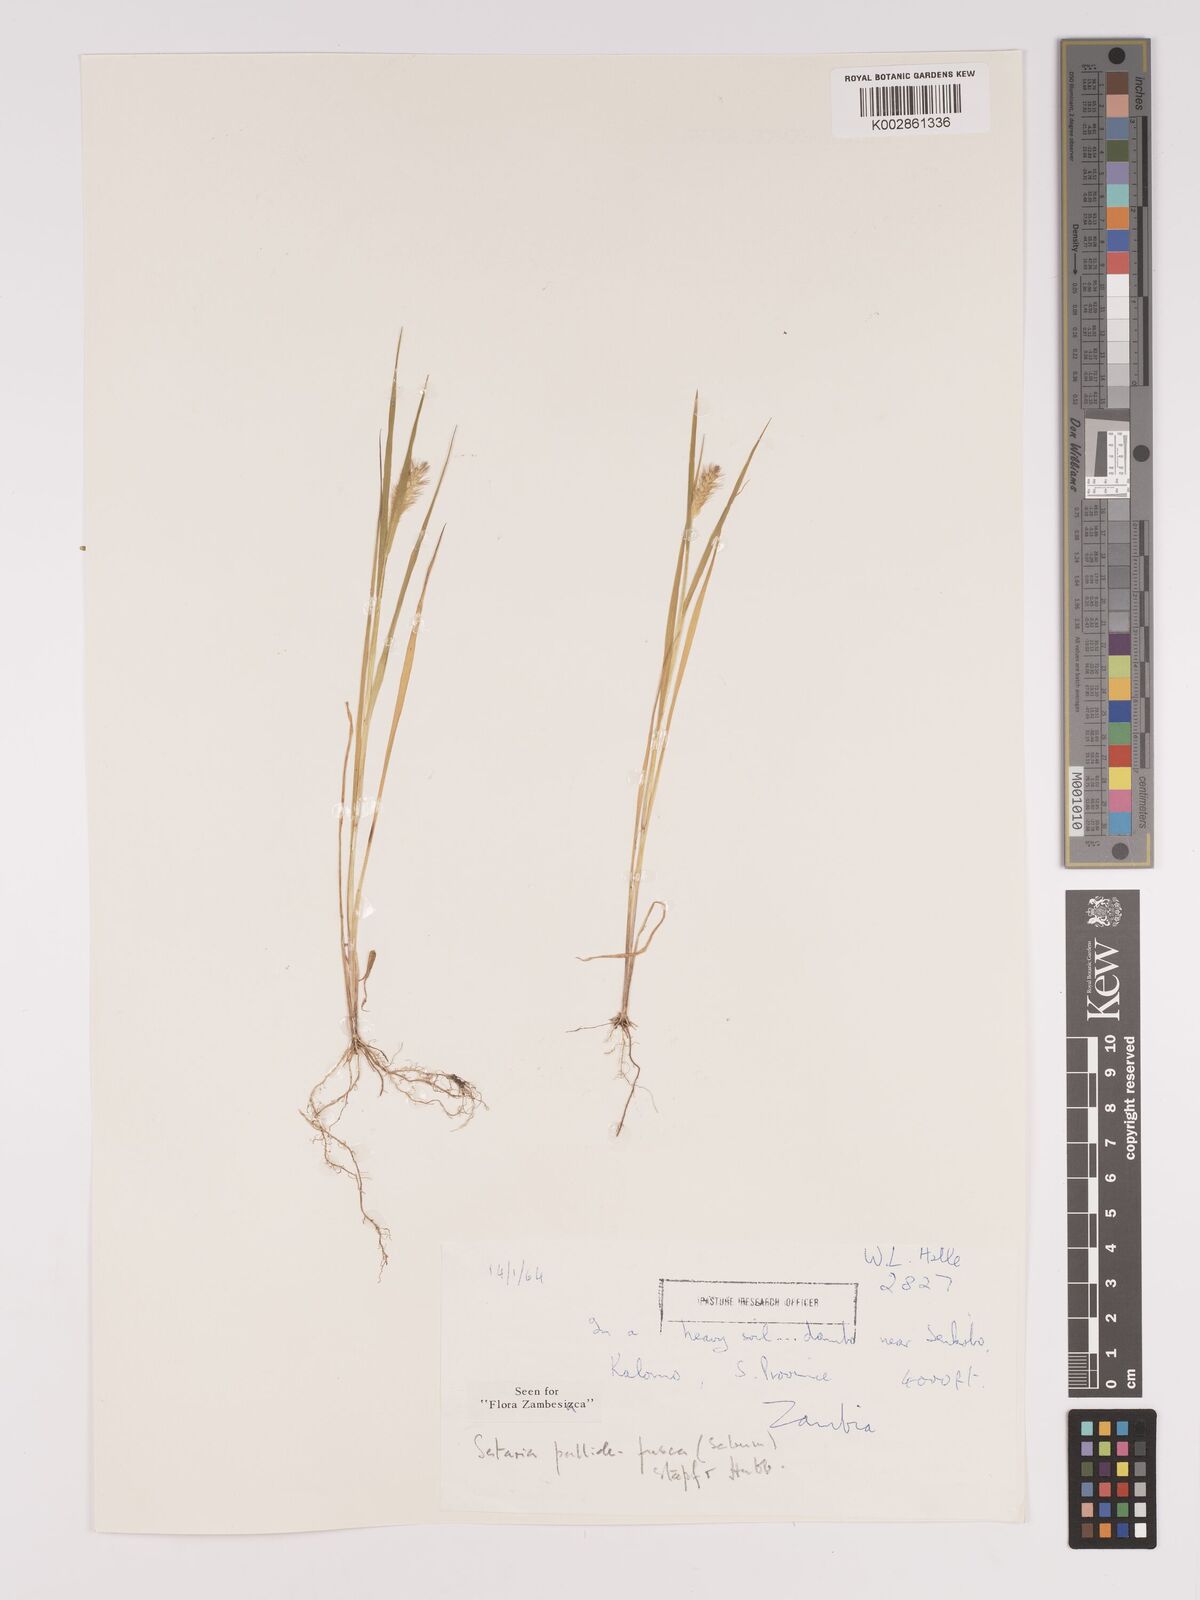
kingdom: Plantae
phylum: Tracheophyta
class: Liliopsida
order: Poales
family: Poaceae
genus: Setaria
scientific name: Setaria pumila
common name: Yellow bristle-grass
